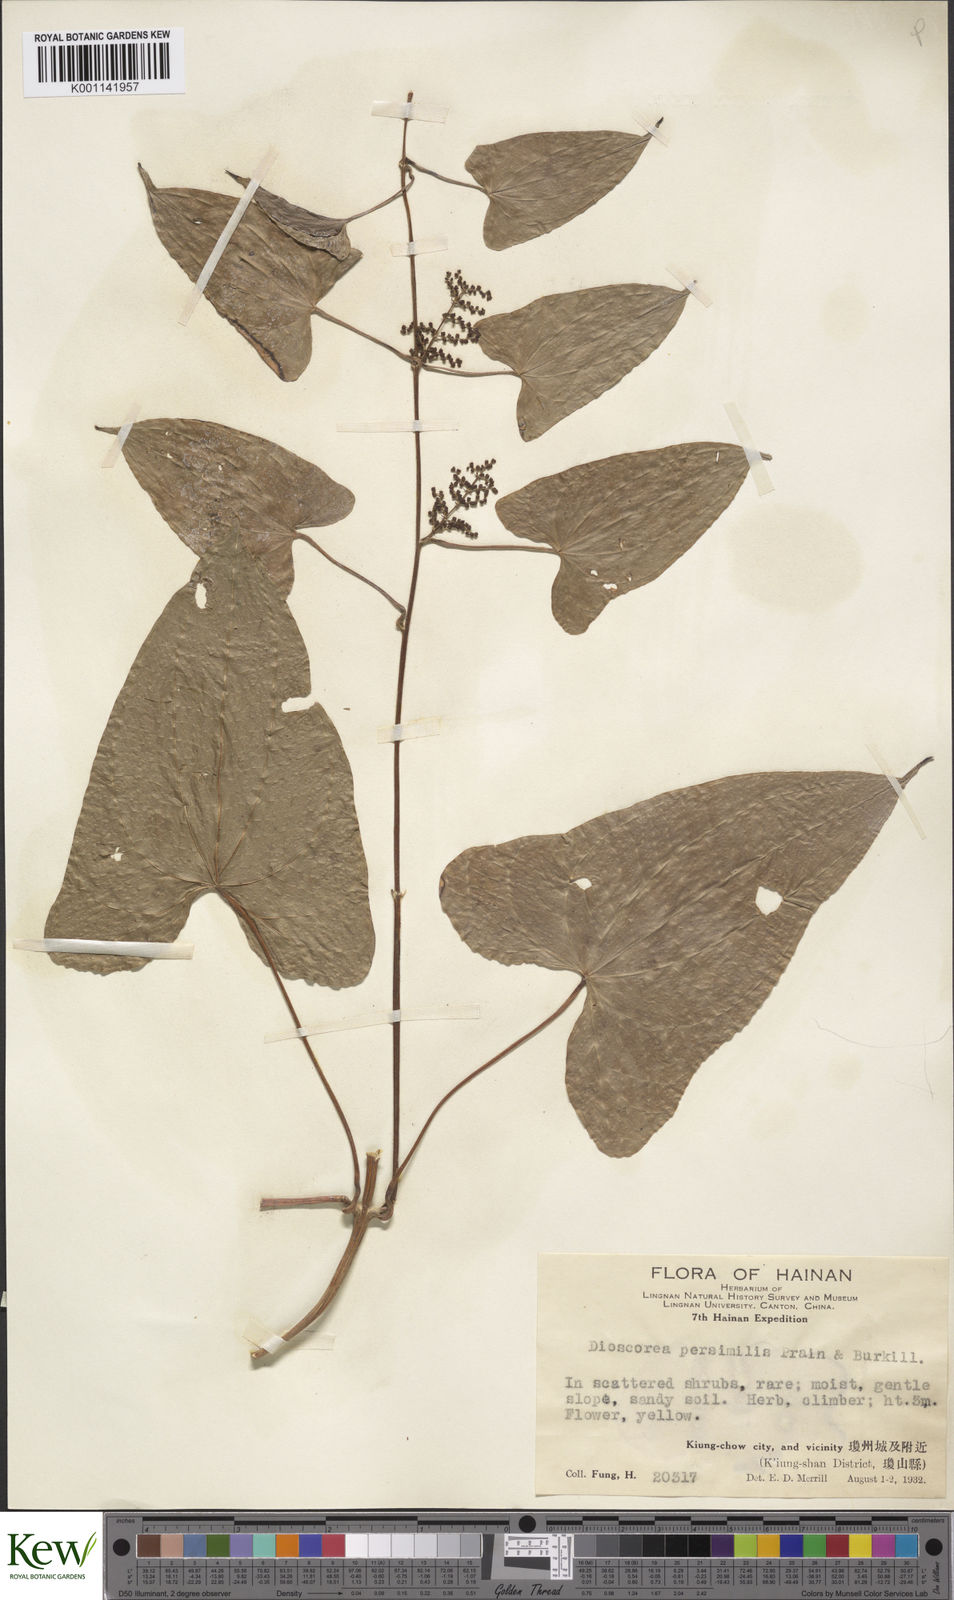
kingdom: Plantae
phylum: Tracheophyta
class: Liliopsida
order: Dioscoreales
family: Dioscoreaceae
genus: Dioscorea
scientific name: Dioscorea hamiltonii
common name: Mountain yam
